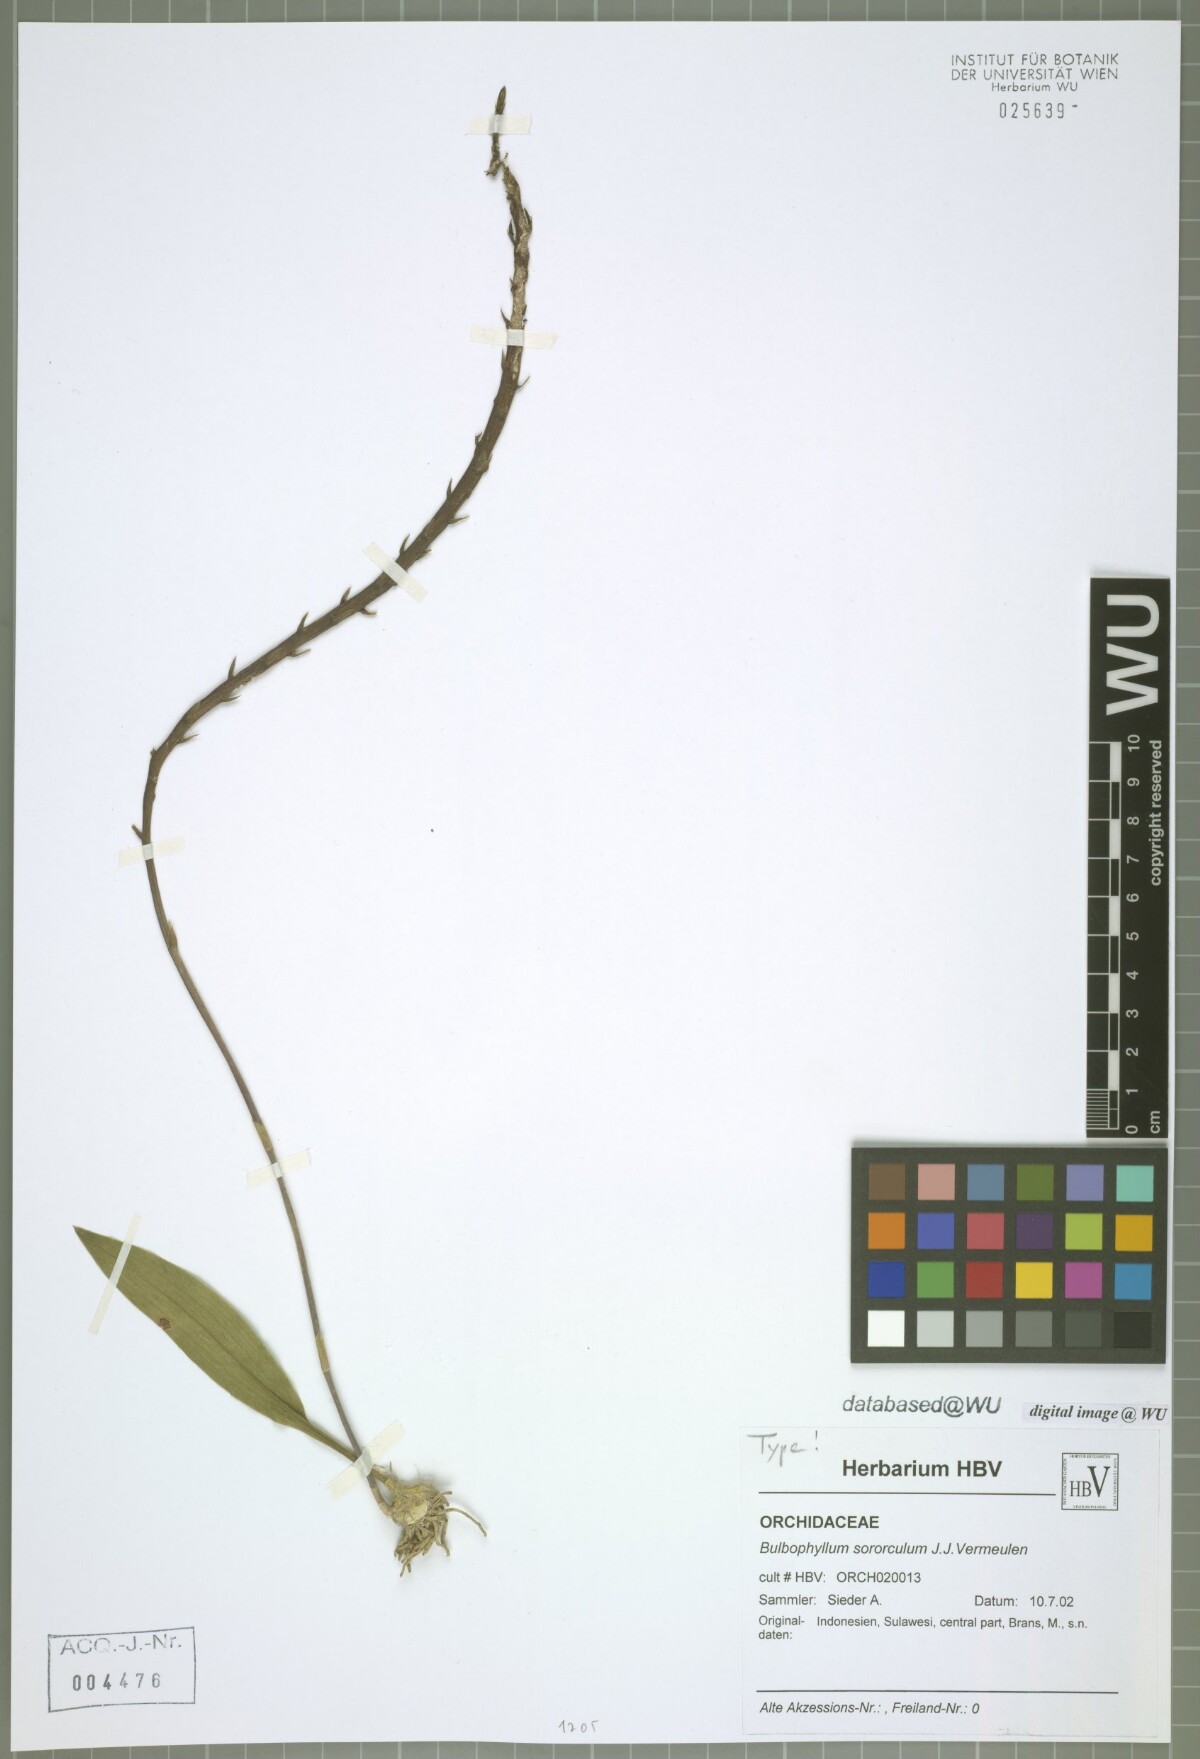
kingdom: Plantae
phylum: Tracheophyta
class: Liliopsida
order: Asparagales
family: Orchidaceae
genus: Bulbophyllum
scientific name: Bulbophyllum sororculum
